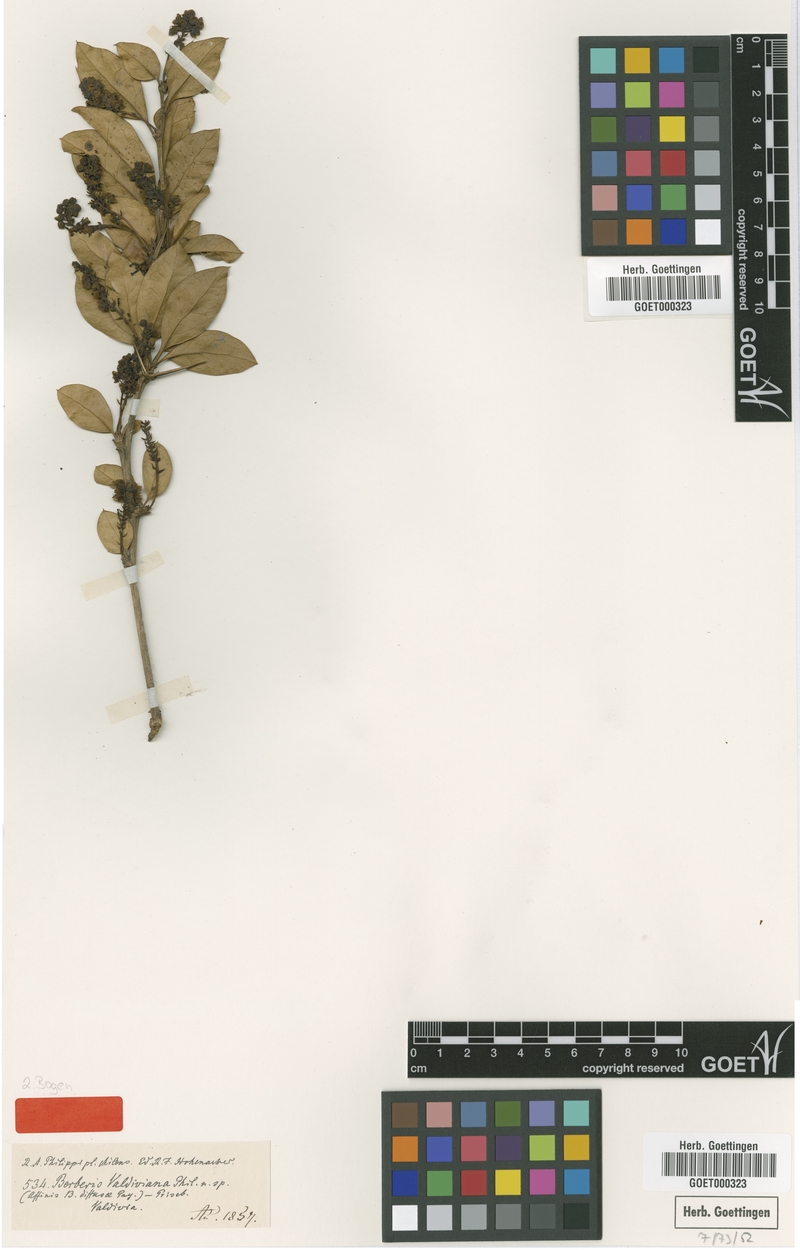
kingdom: Plantae
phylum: Tracheophyta
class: Magnoliopsida
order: Ranunculales
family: Berberidaceae
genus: Berberis
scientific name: Berberis valdiviana
